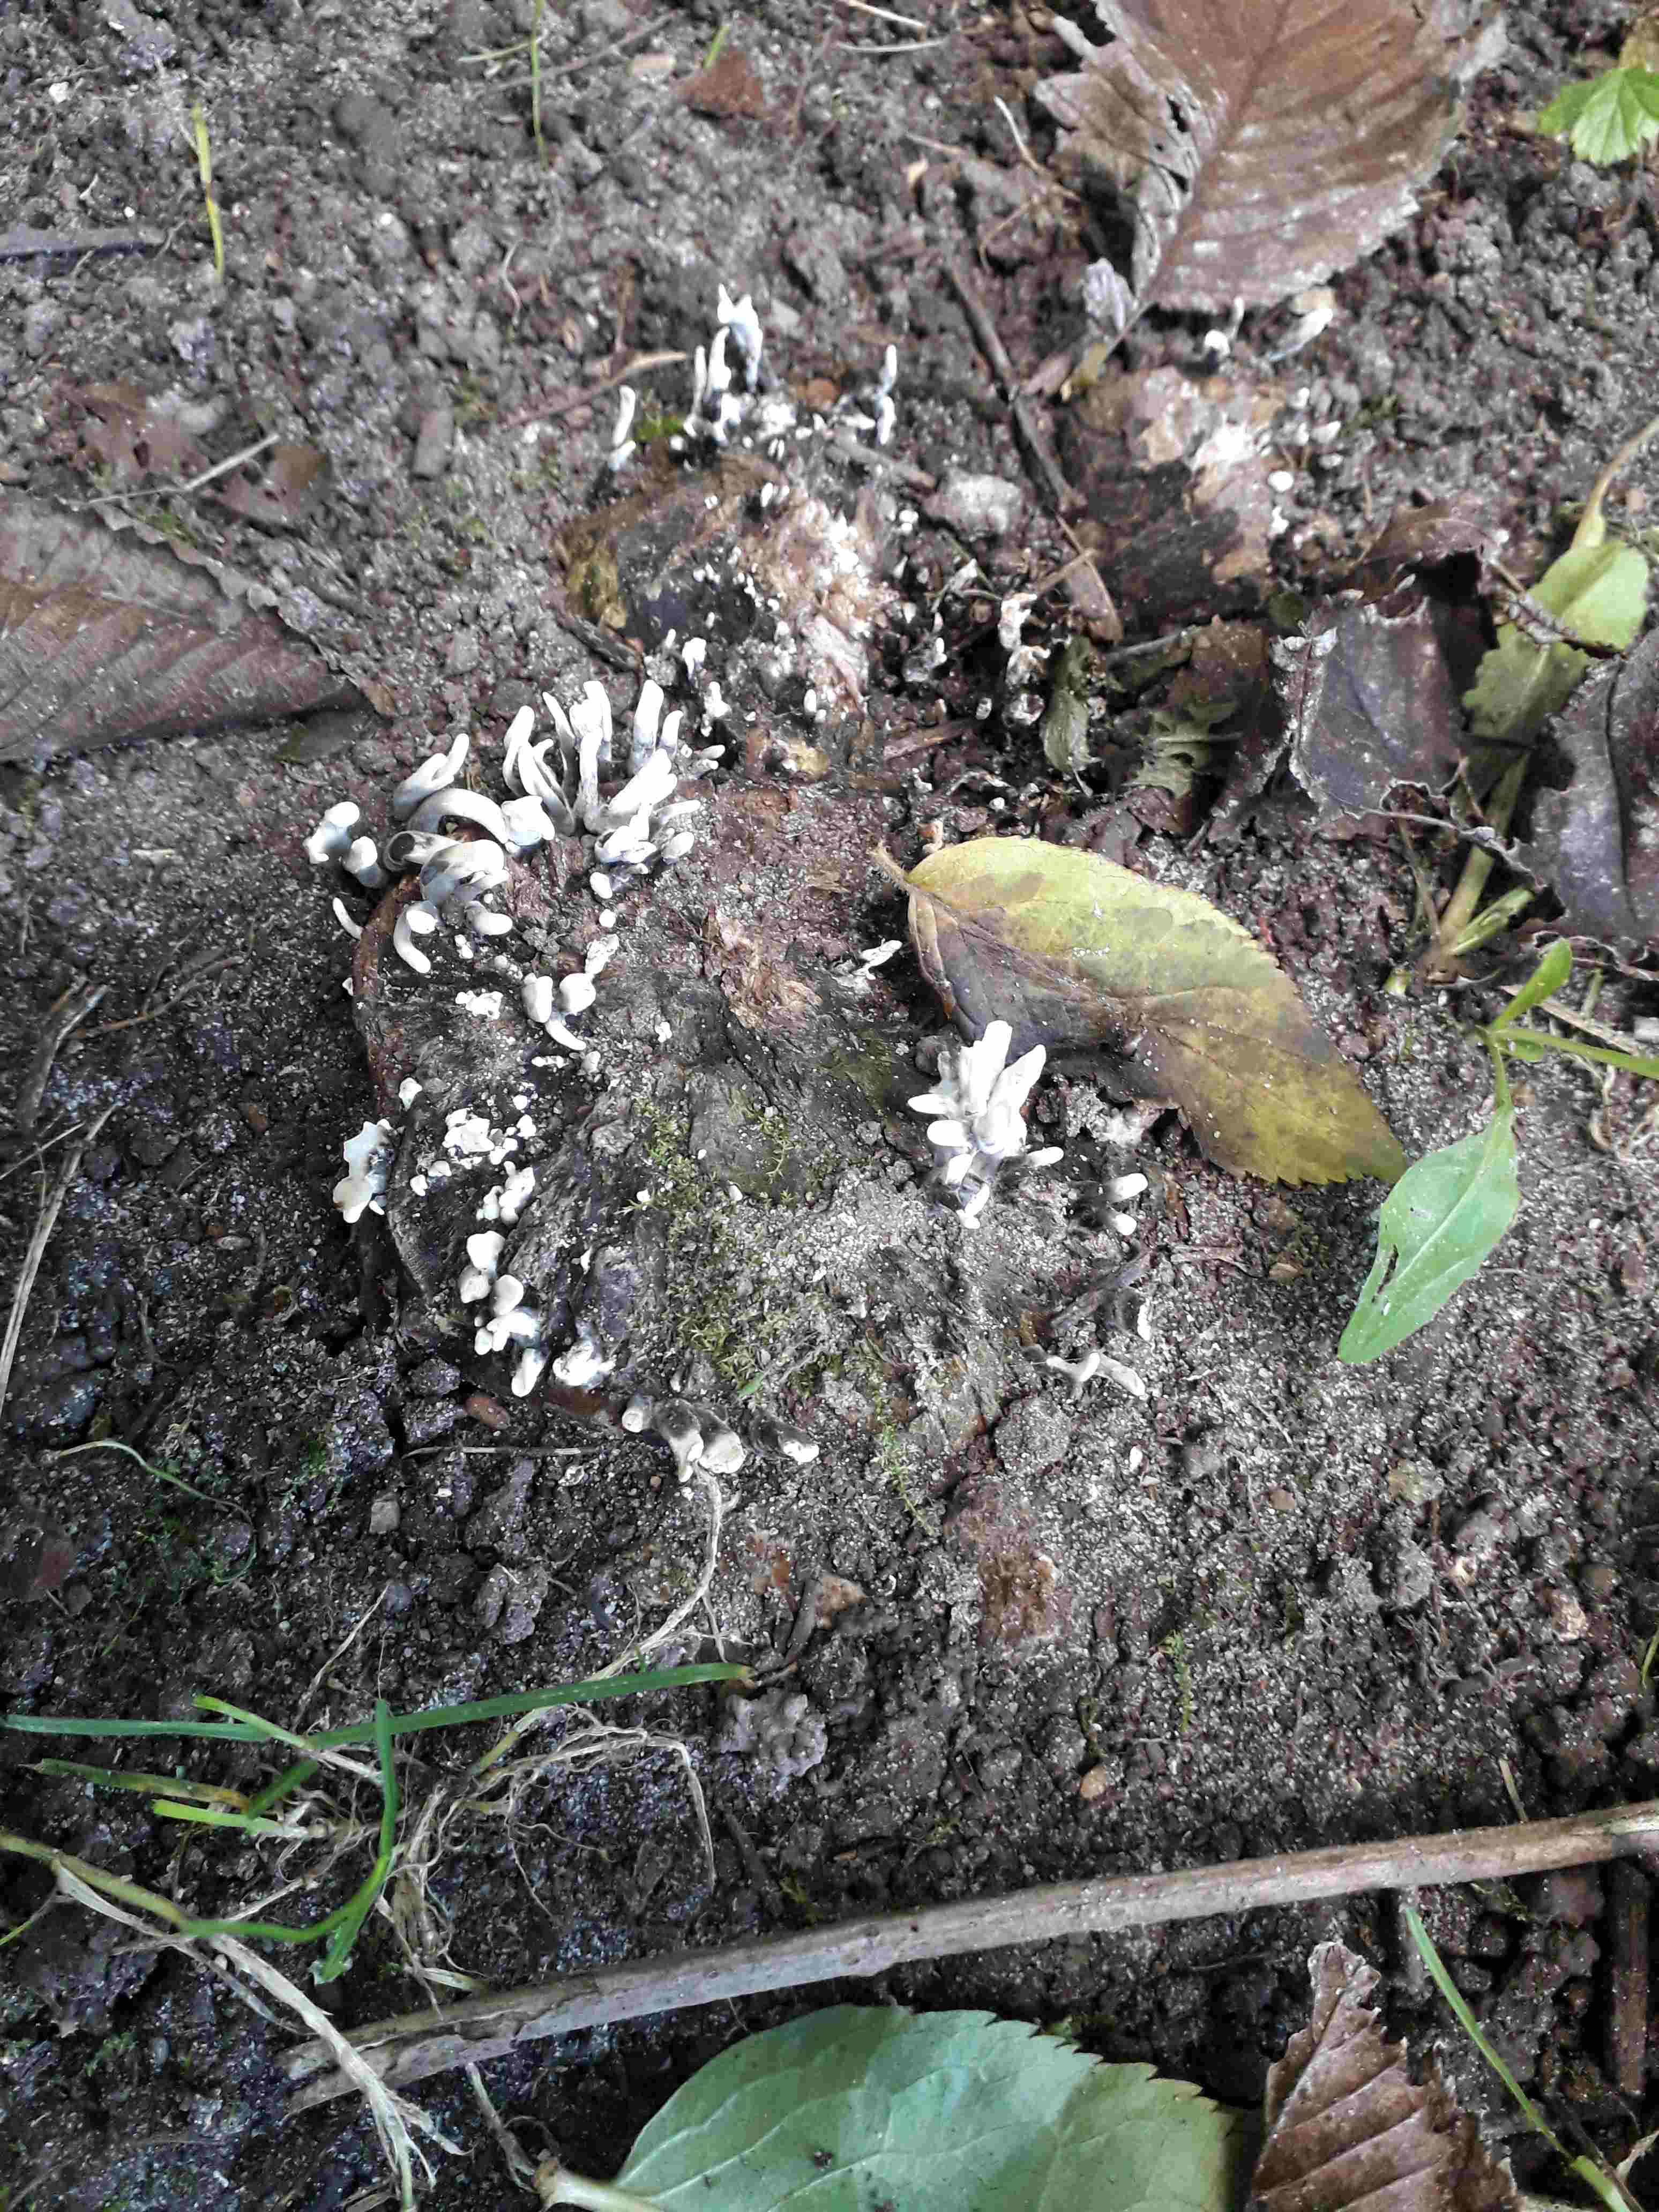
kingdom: Fungi
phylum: Ascomycota
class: Sordariomycetes
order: Xylariales
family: Xylariaceae
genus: Xylaria
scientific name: Xylaria hypoxylon
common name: grenet stødsvamp
